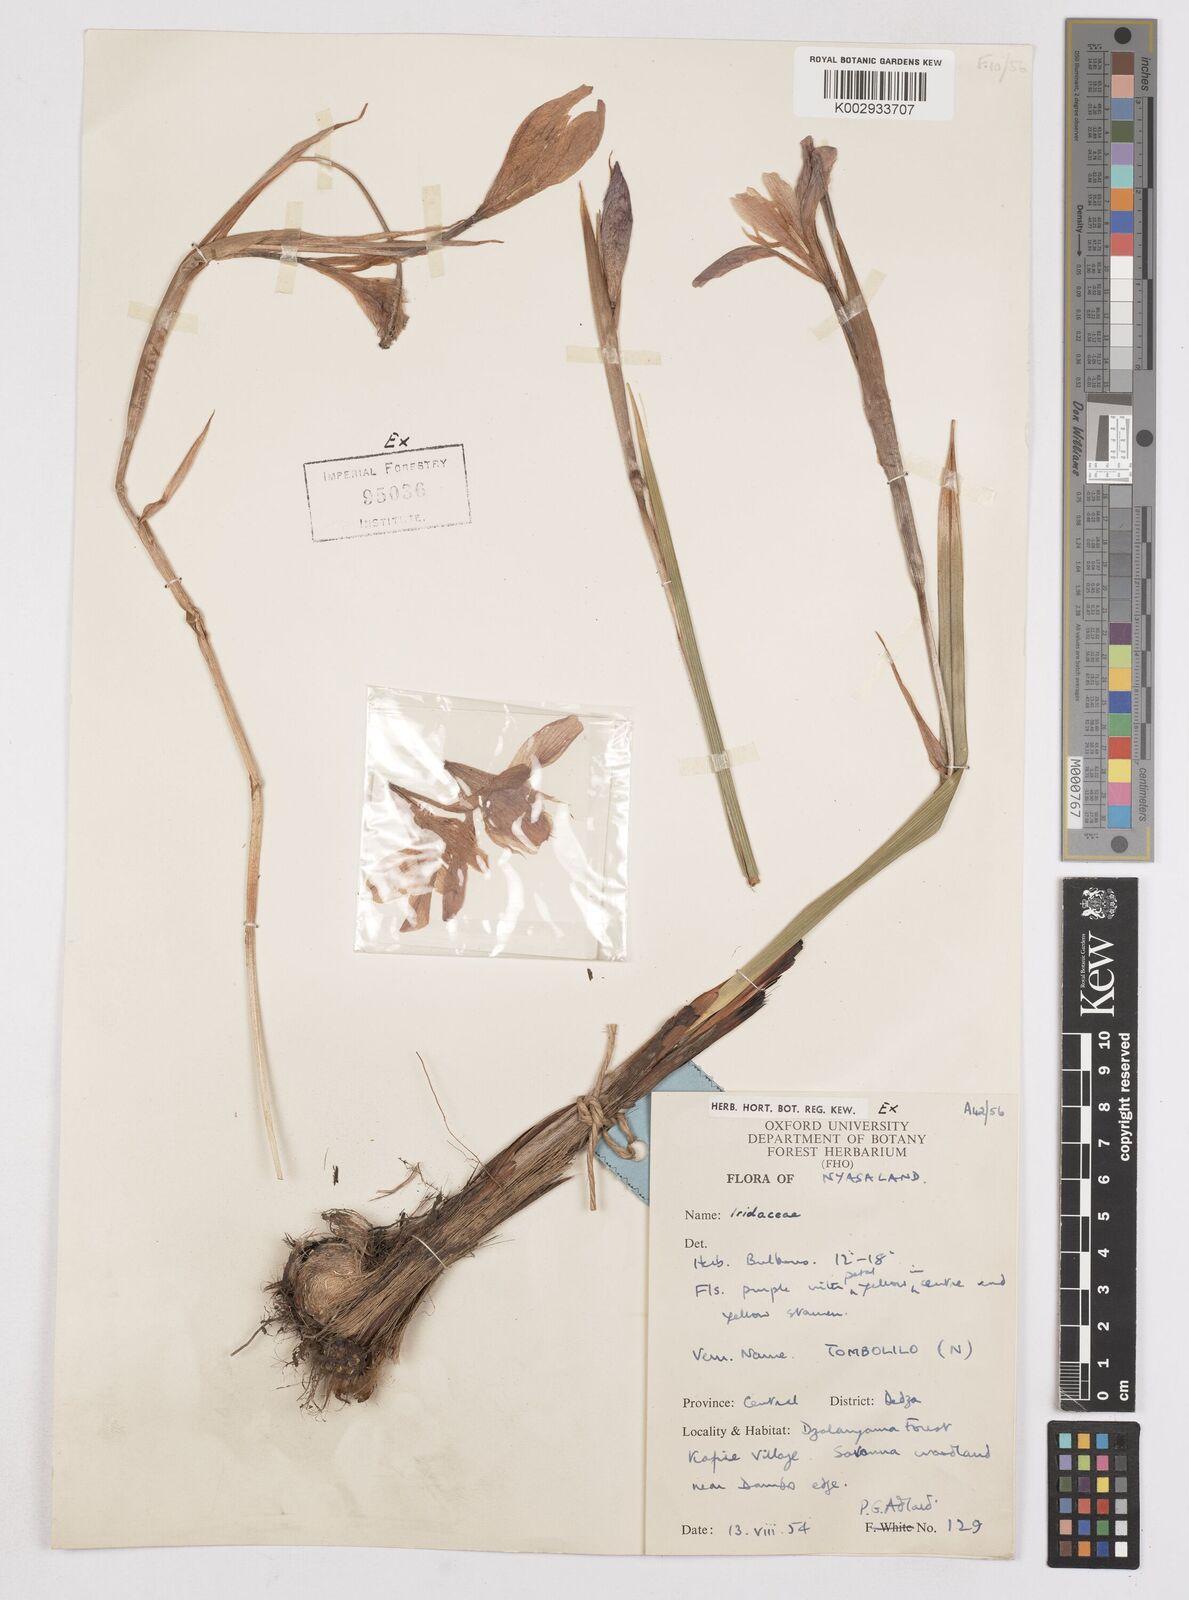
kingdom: Plantae
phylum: Tracheophyta
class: Liliopsida
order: Asparagales
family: Iridaceae
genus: Moraea
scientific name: Moraea
